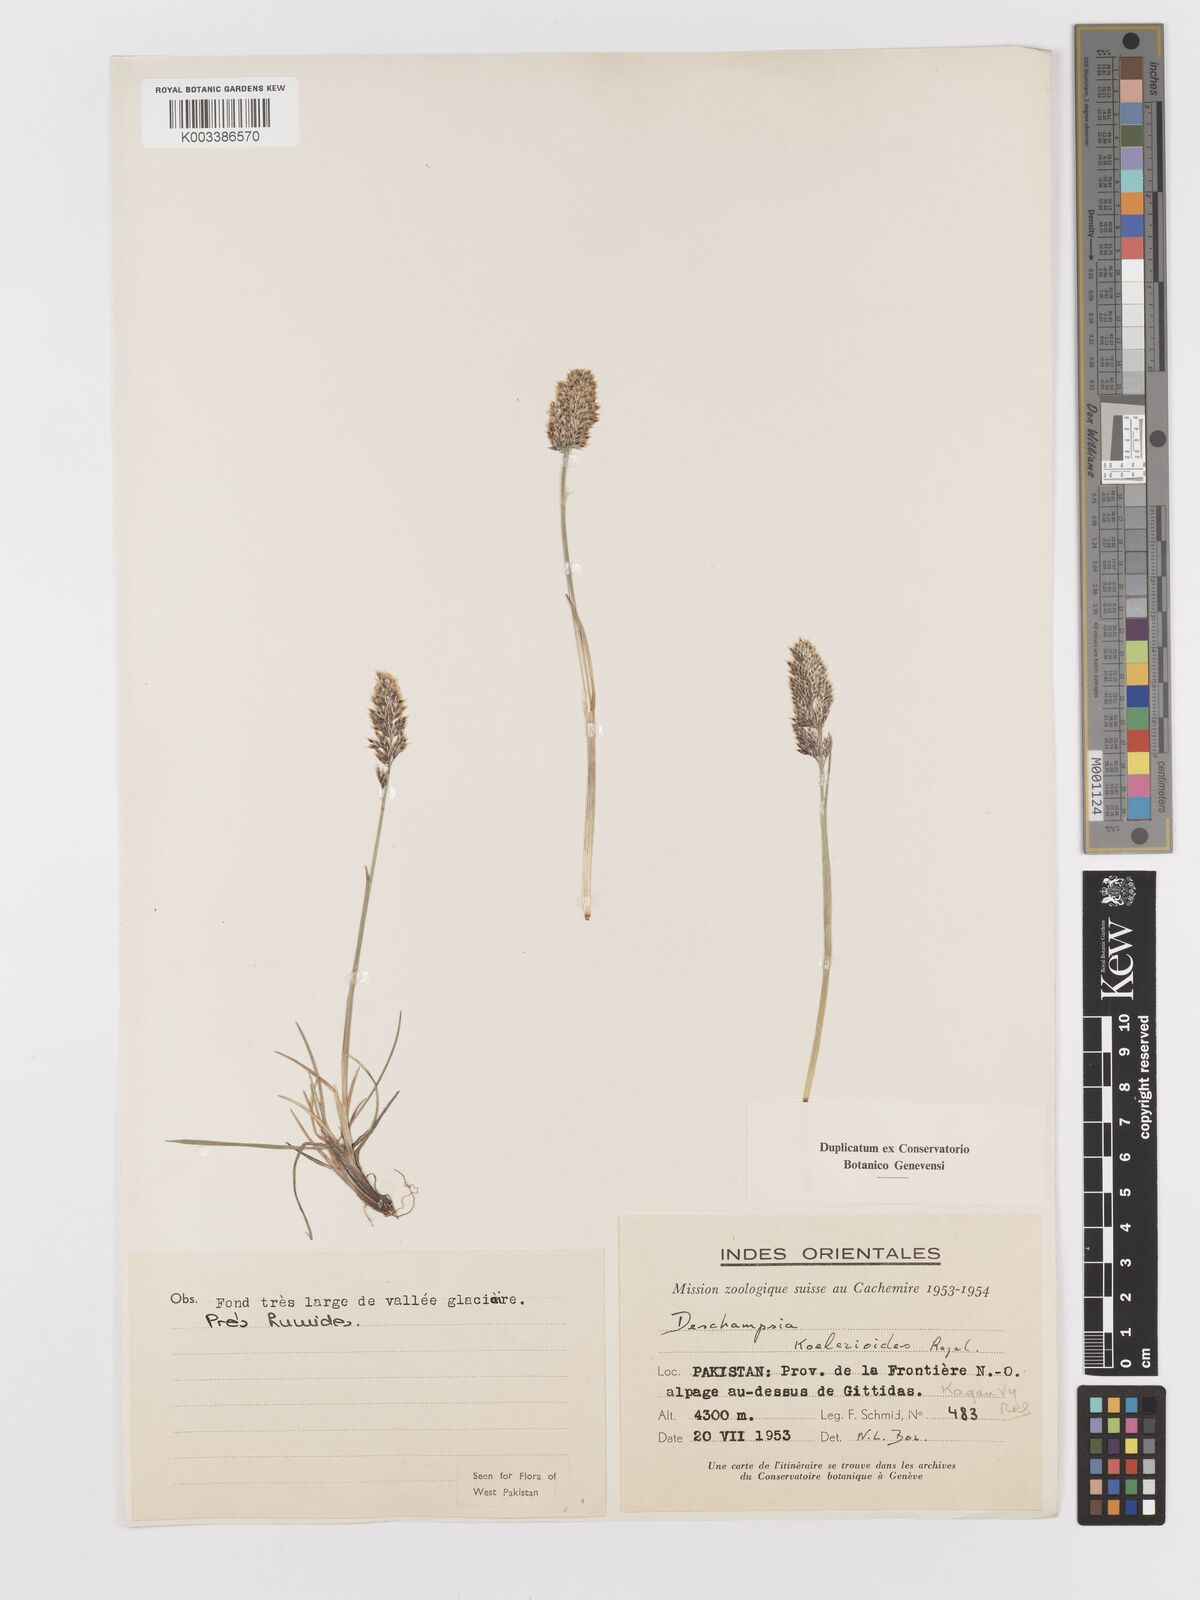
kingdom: Plantae
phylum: Tracheophyta
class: Liliopsida
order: Poales
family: Poaceae
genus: Deschampsia
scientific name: Deschampsia koelerioides
